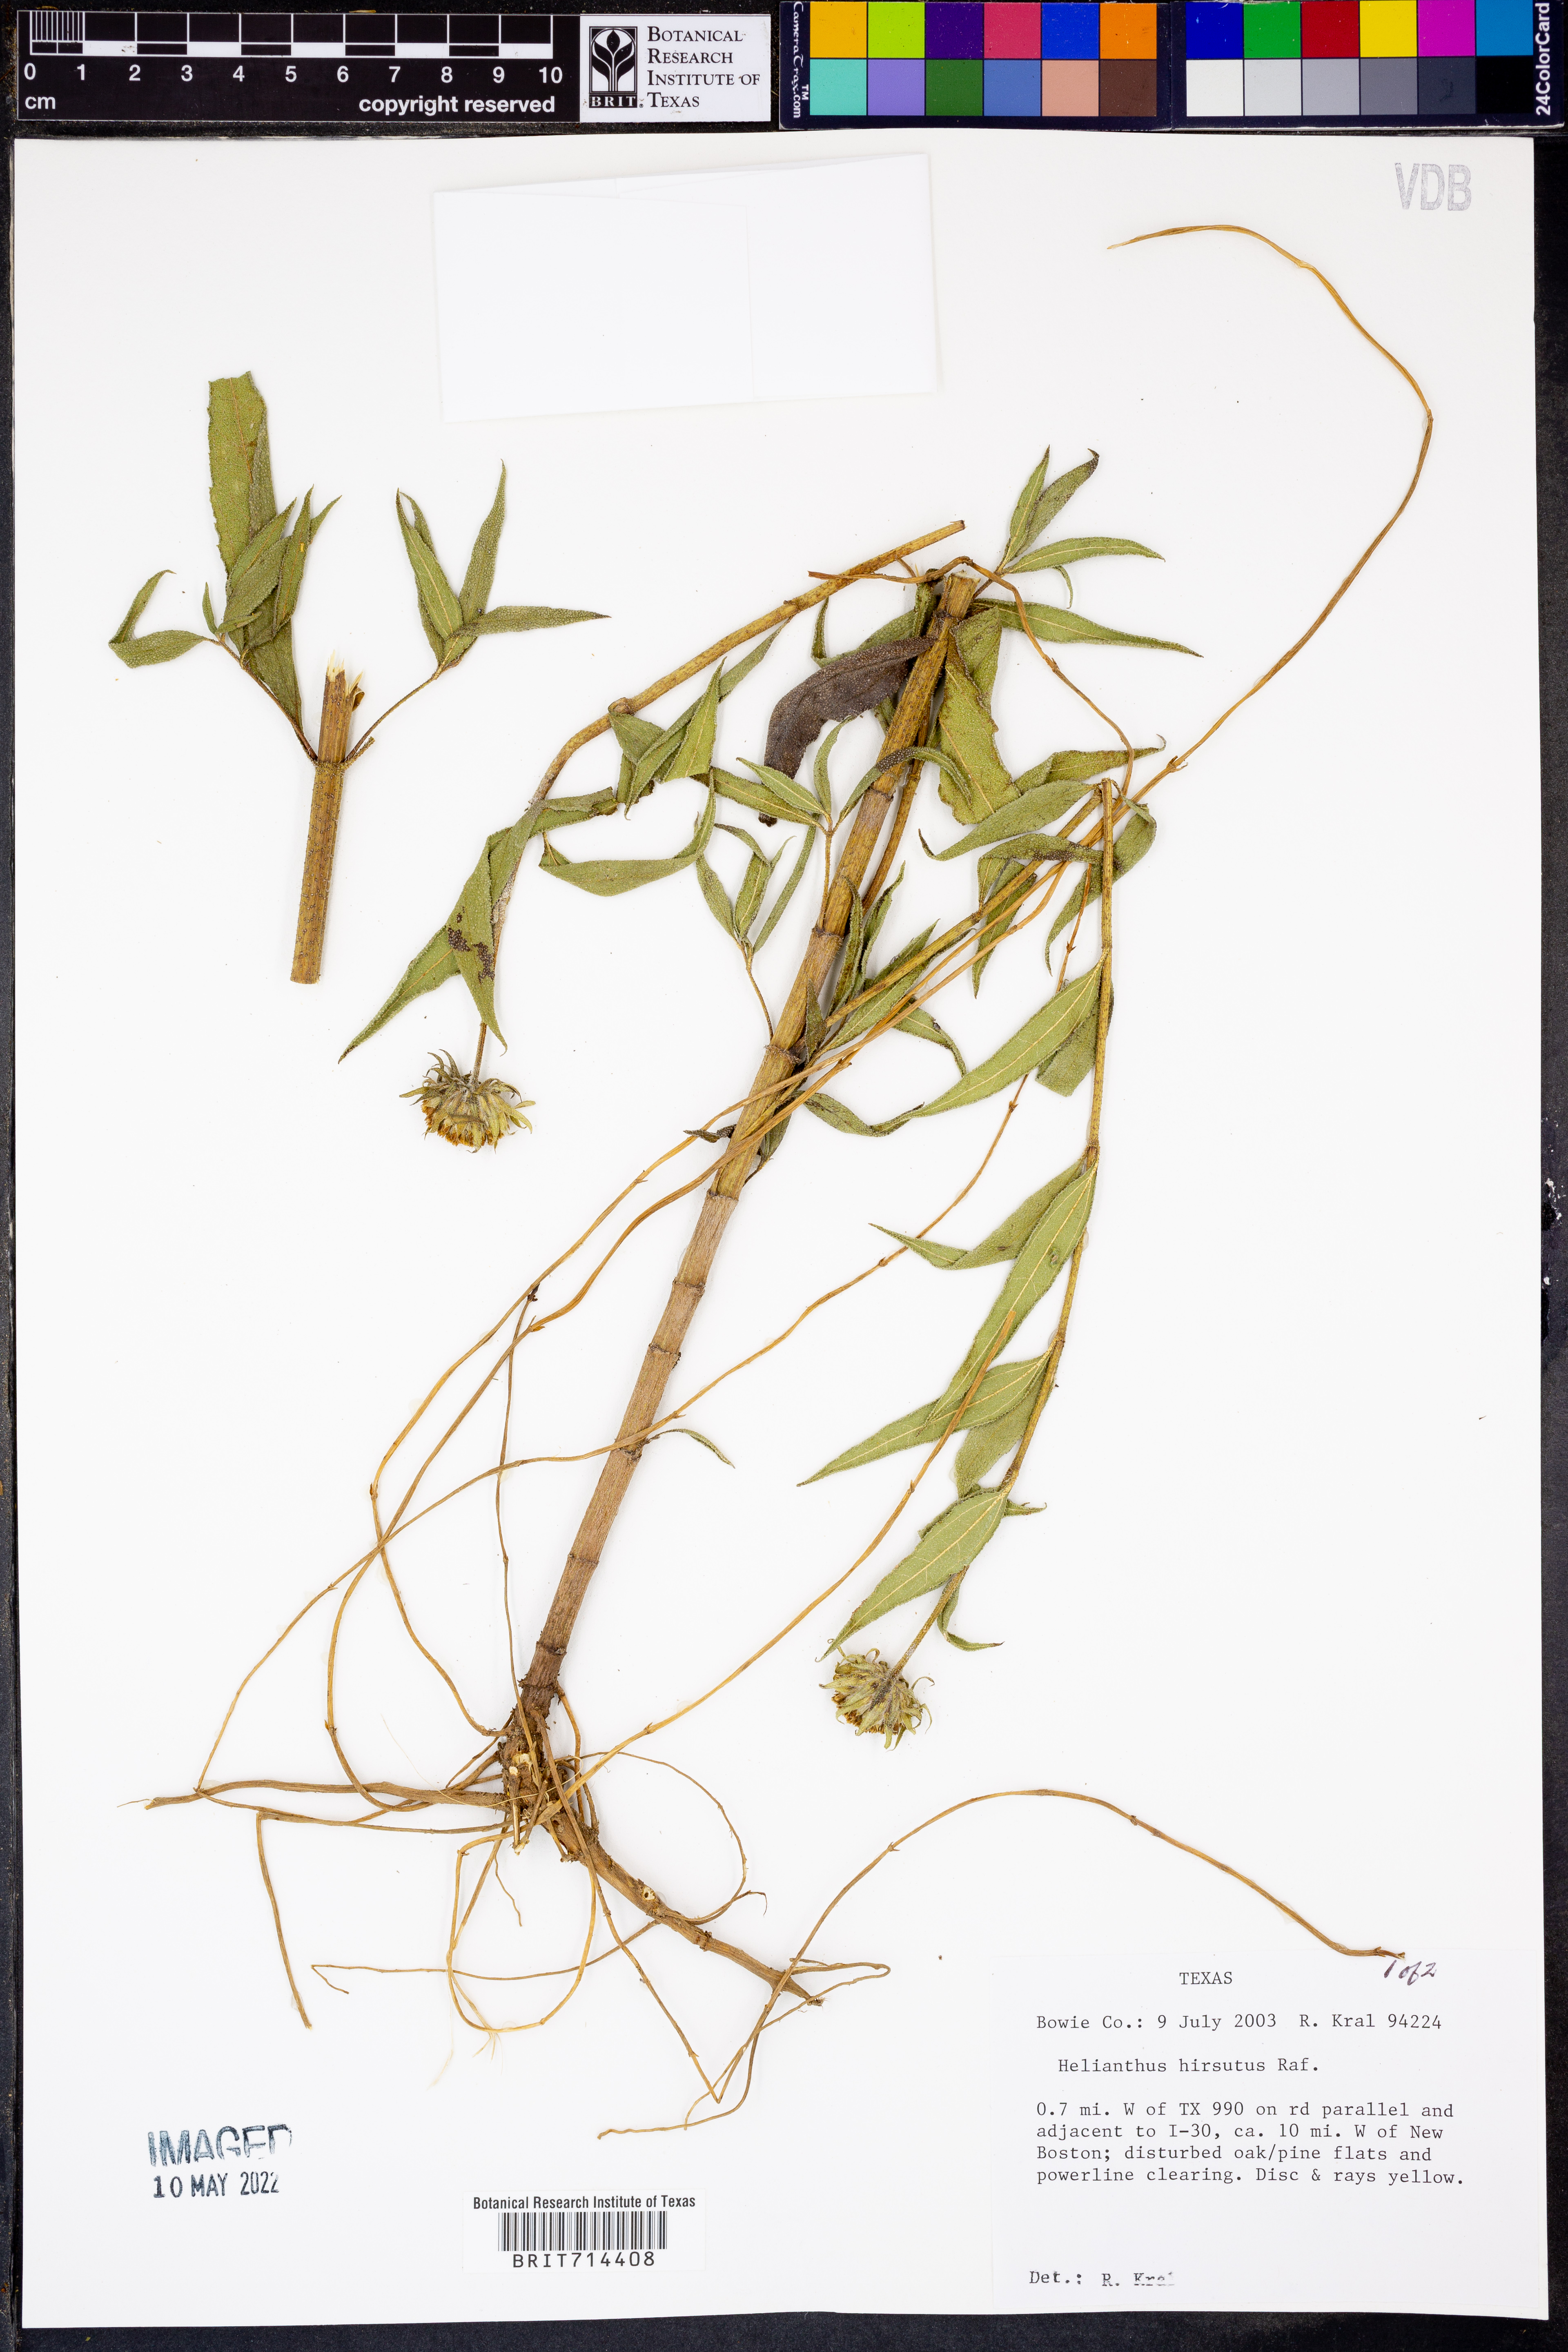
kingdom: Plantae
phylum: Tracheophyta
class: Magnoliopsida
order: Asterales
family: Asteraceae
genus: Helianthus
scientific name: Helianthus hirsutus
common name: Hairy sunflower
